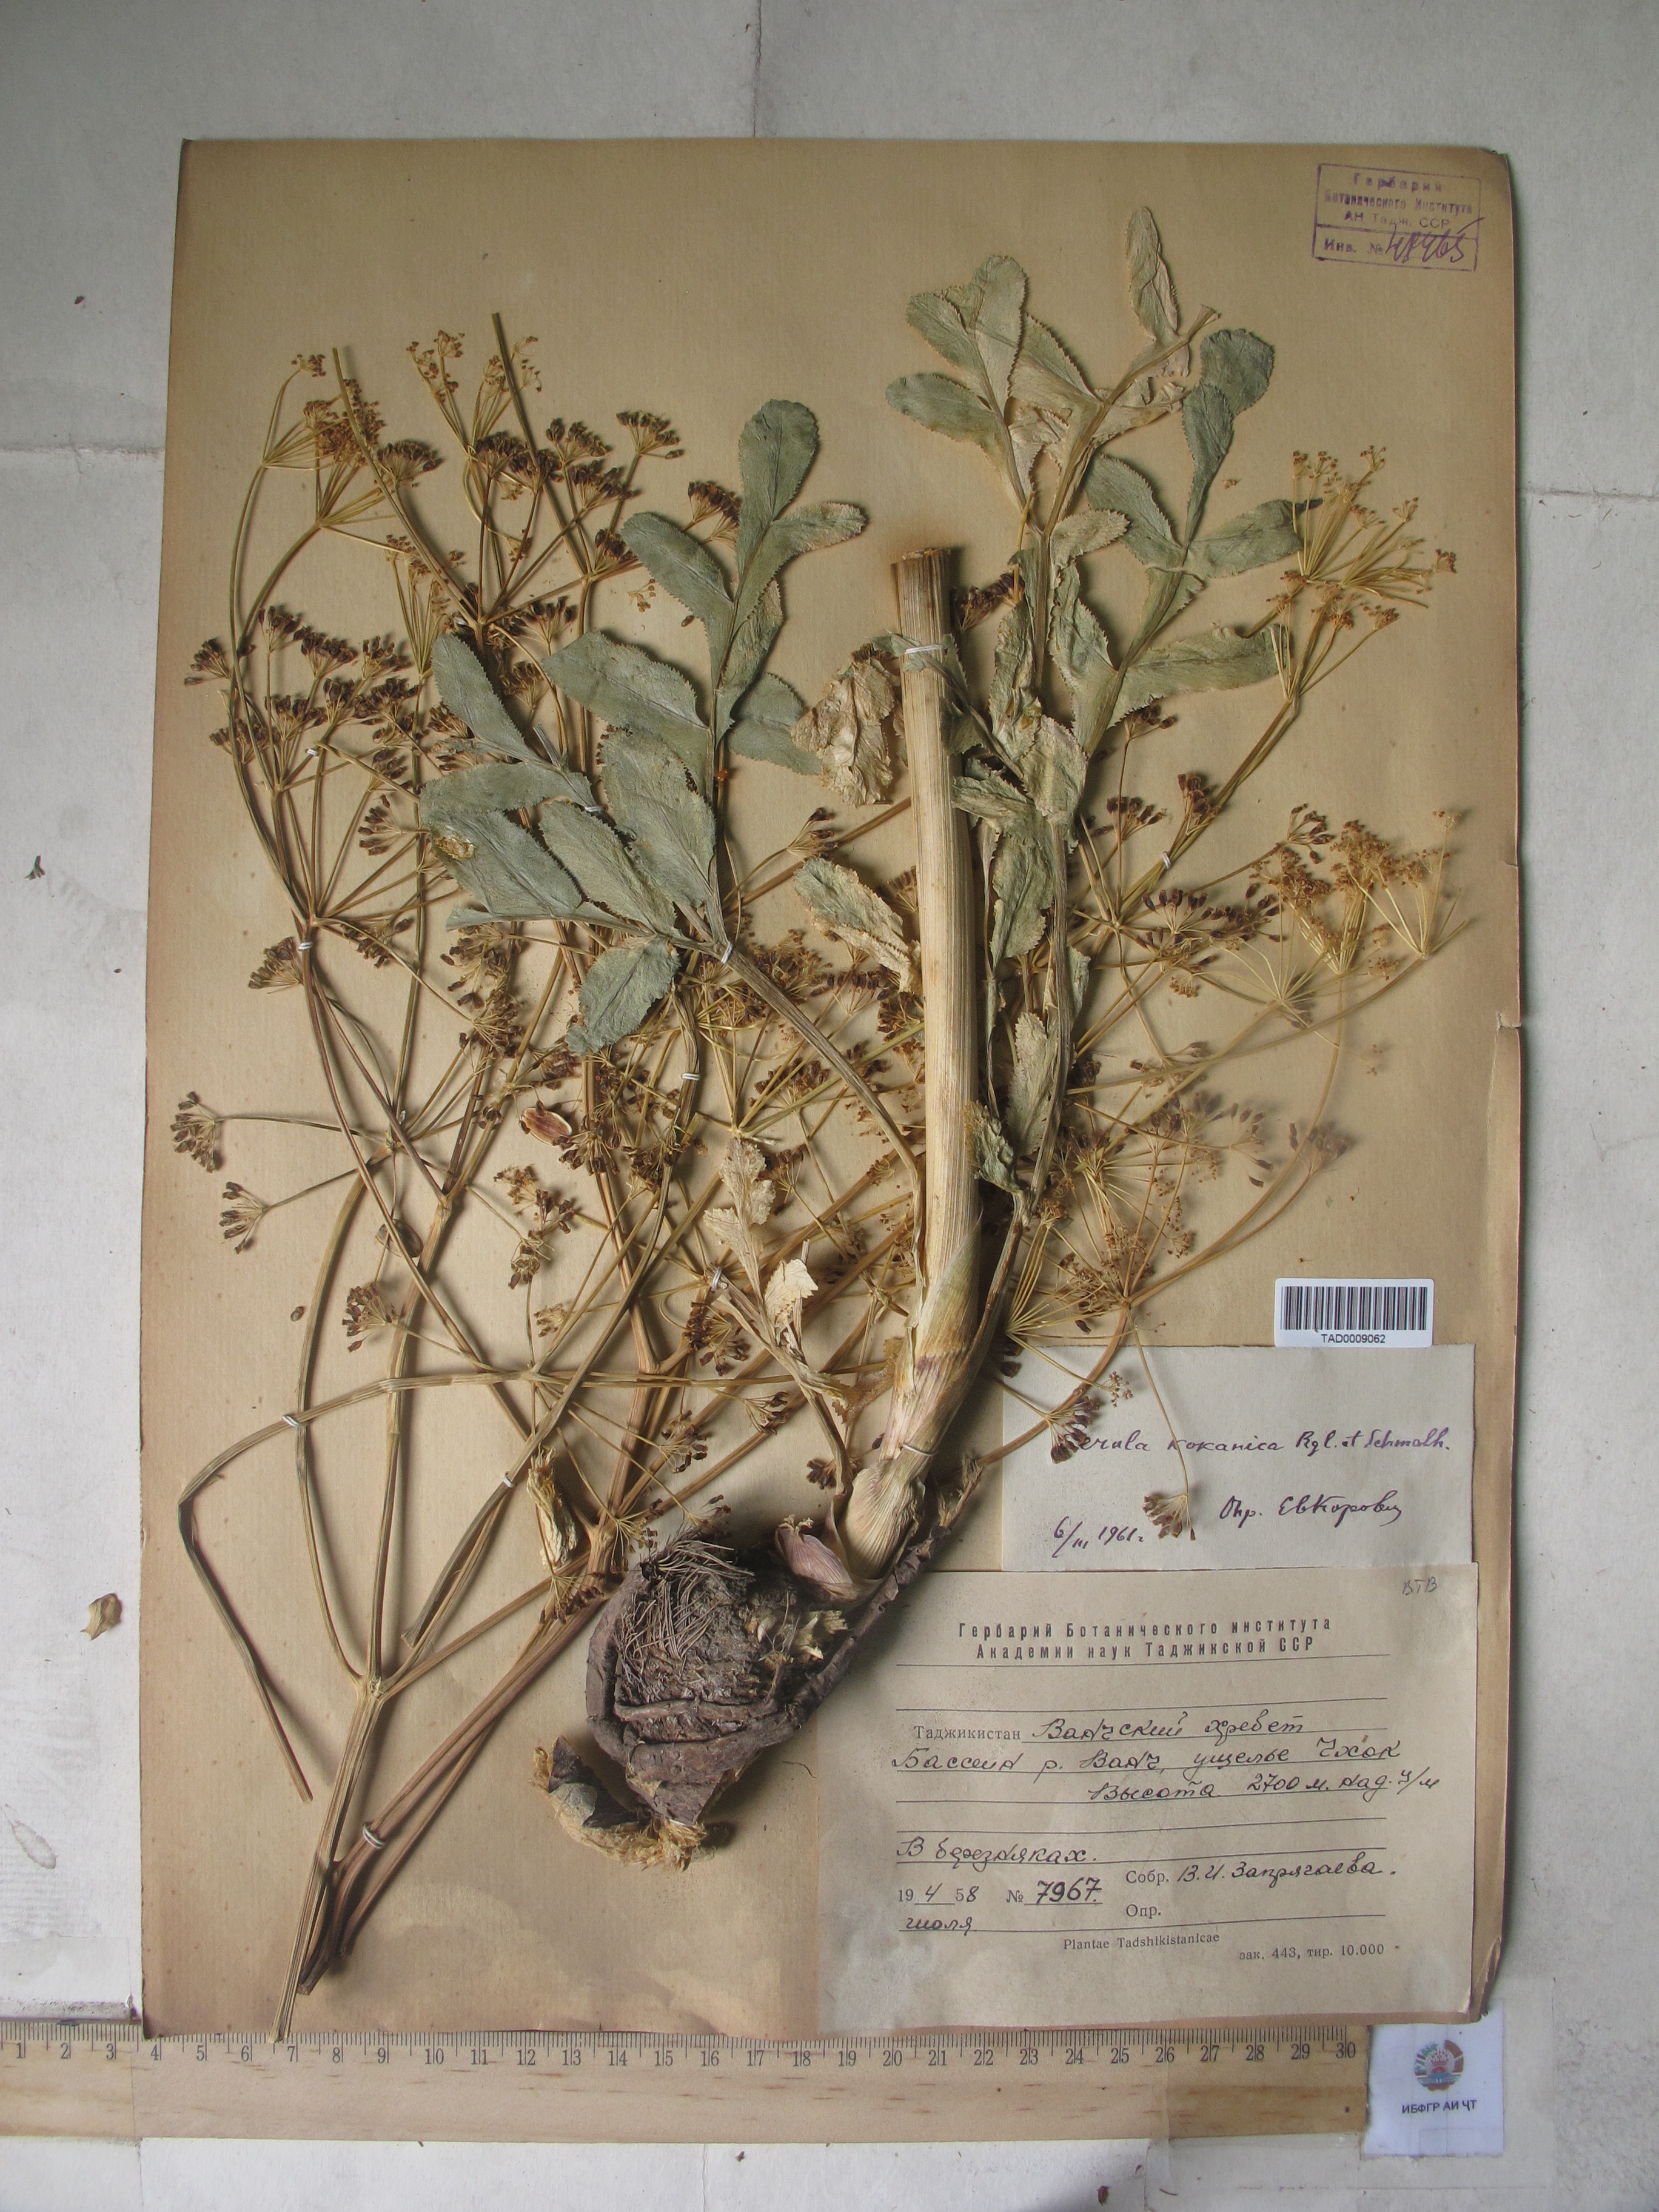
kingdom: Plantae
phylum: Tracheophyta
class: Magnoliopsida
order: Apiales
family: Apiaceae
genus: Ferula
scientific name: Ferula kokanica
